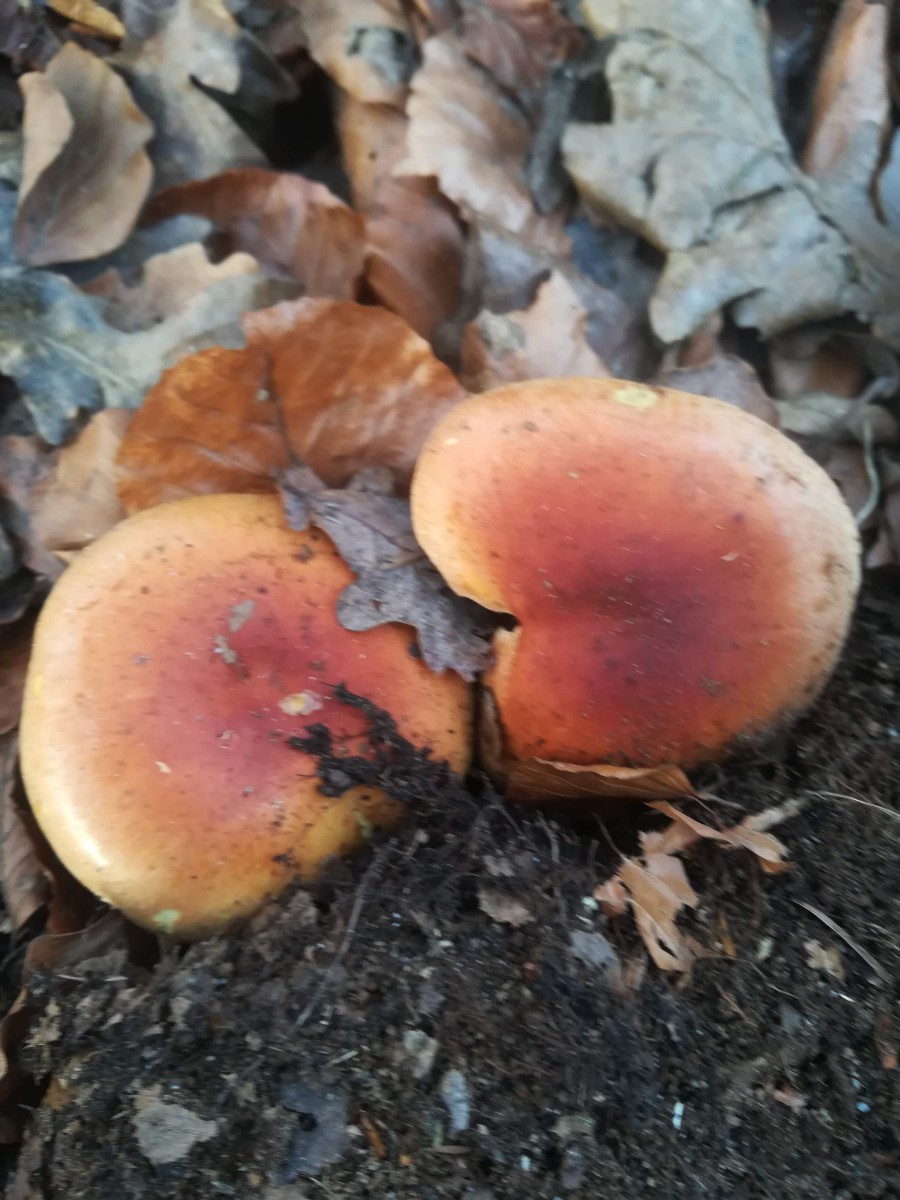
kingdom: Fungi
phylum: Basidiomycota
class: Agaricomycetes
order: Agaricales
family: Strophariaceae
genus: Hypholoma
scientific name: Hypholoma lateritium
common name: teglrød svovlhat
